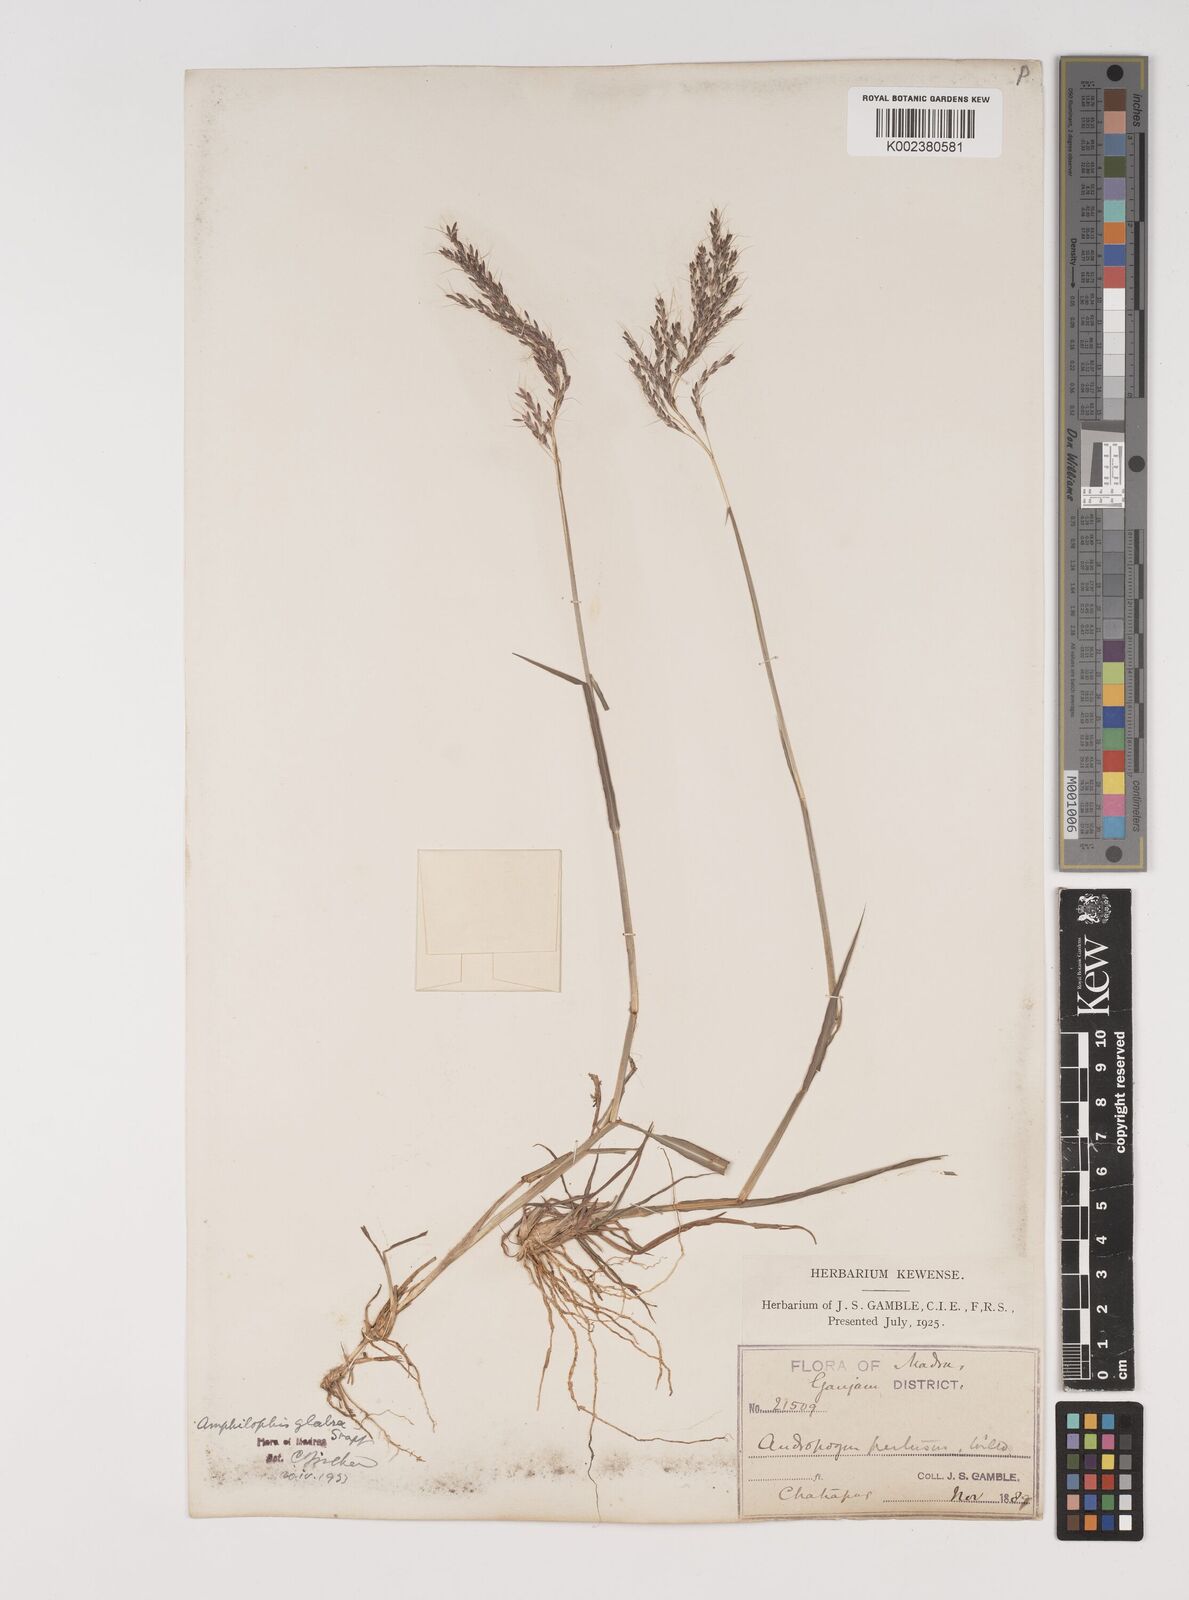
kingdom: Plantae
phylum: Tracheophyta
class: Liliopsida
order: Poales
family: Poaceae
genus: Bothriochloa
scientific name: Bothriochloa bladhii
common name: Caucasian bluestem
